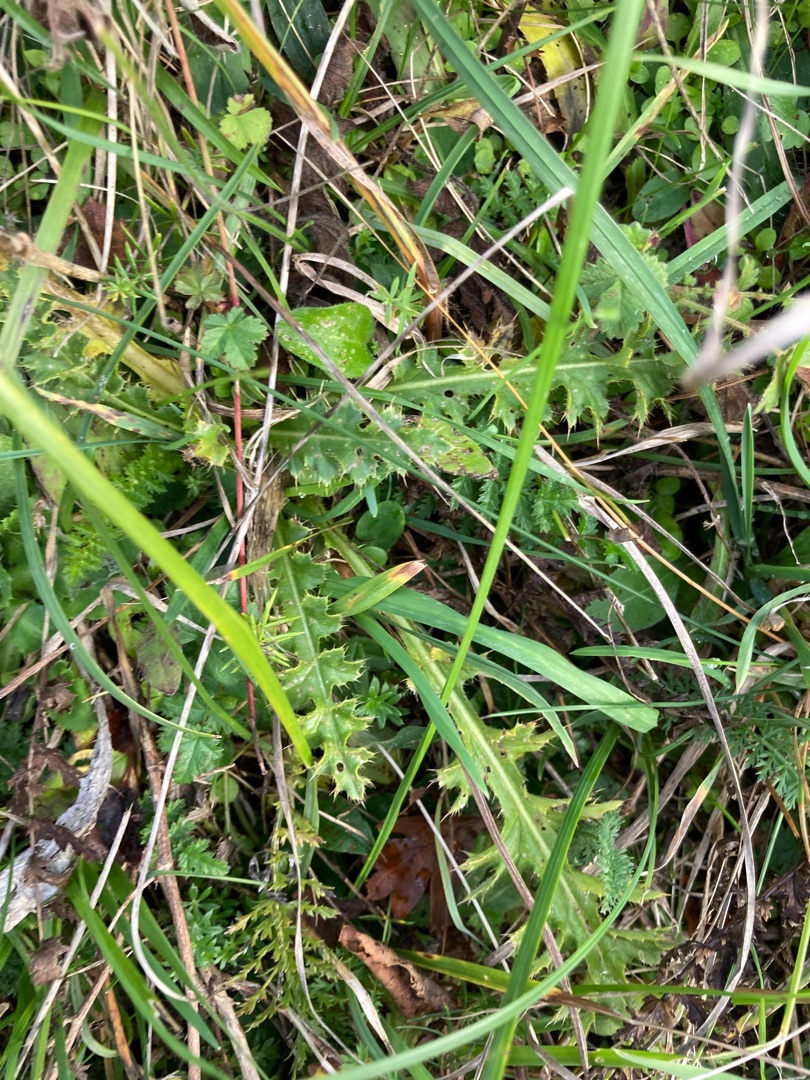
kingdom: Plantae
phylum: Tracheophyta
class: Magnoliopsida
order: Asterales
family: Asteraceae
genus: Cirsium
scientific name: Cirsium acaule
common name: Lav tidsel
